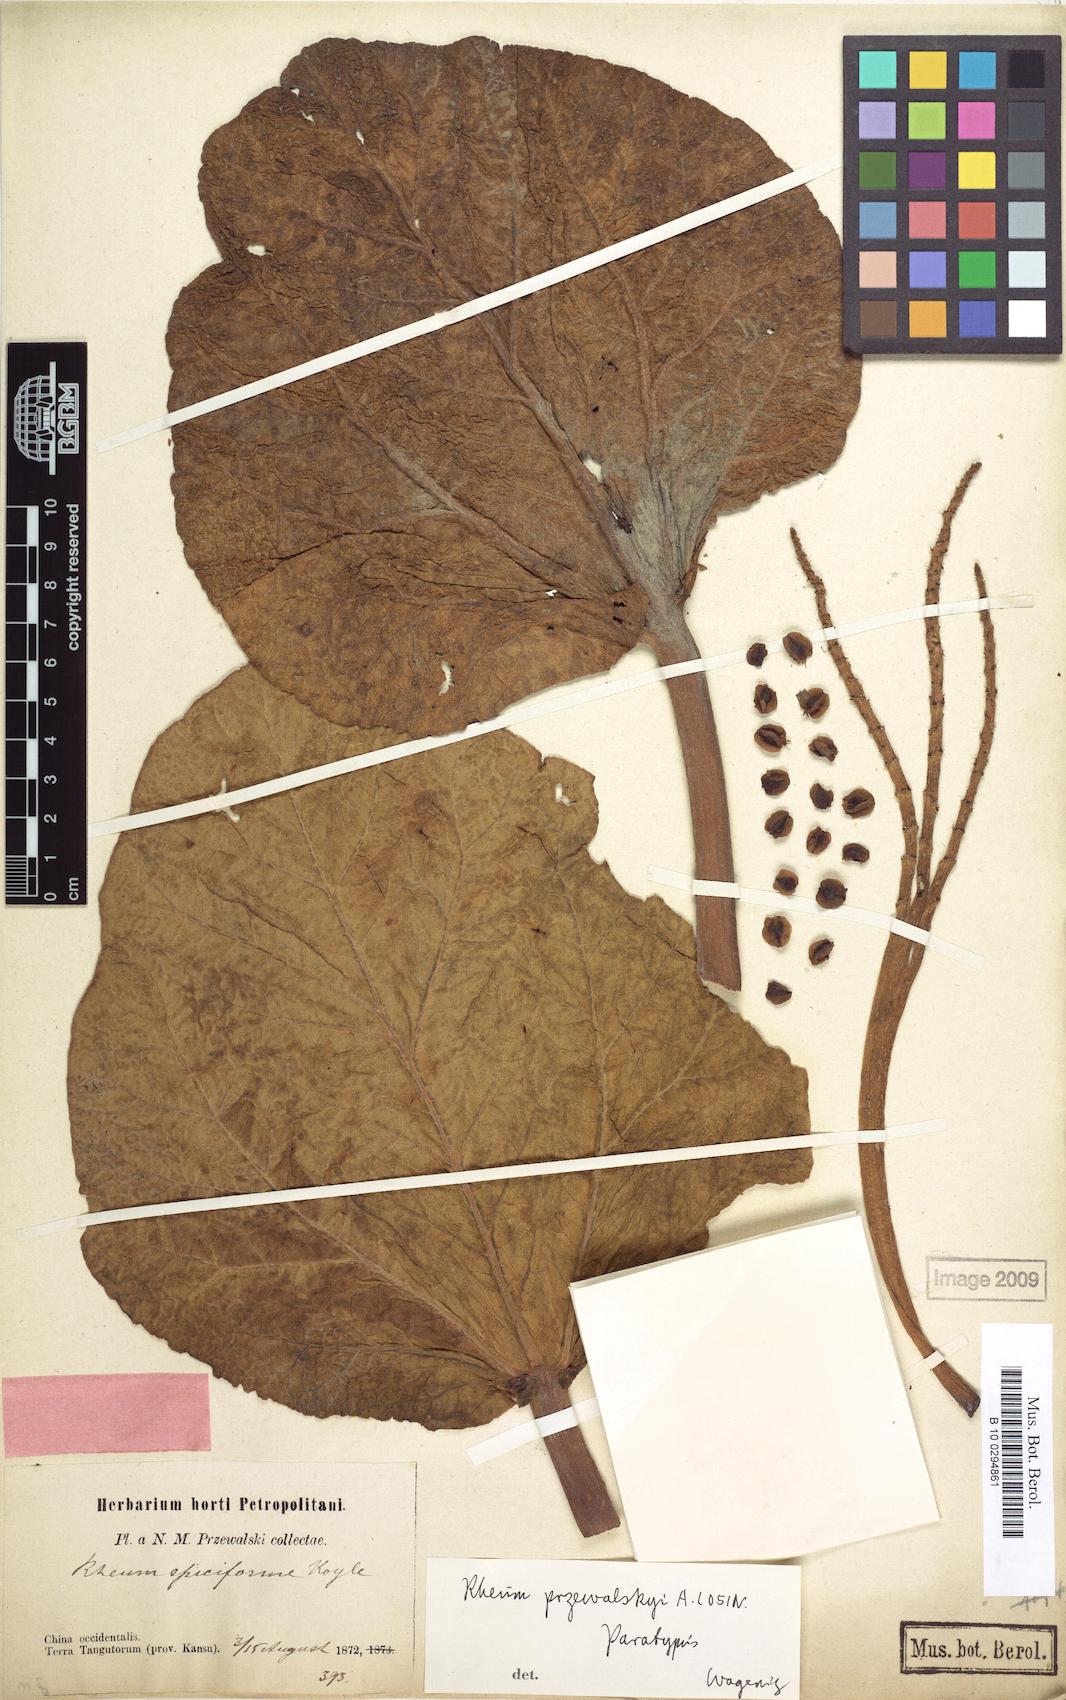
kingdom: Plantae
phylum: Tracheophyta
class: Magnoliopsida
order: Caryophyllales
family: Polygonaceae
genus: Rheum
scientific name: Rheum przewalskyi
